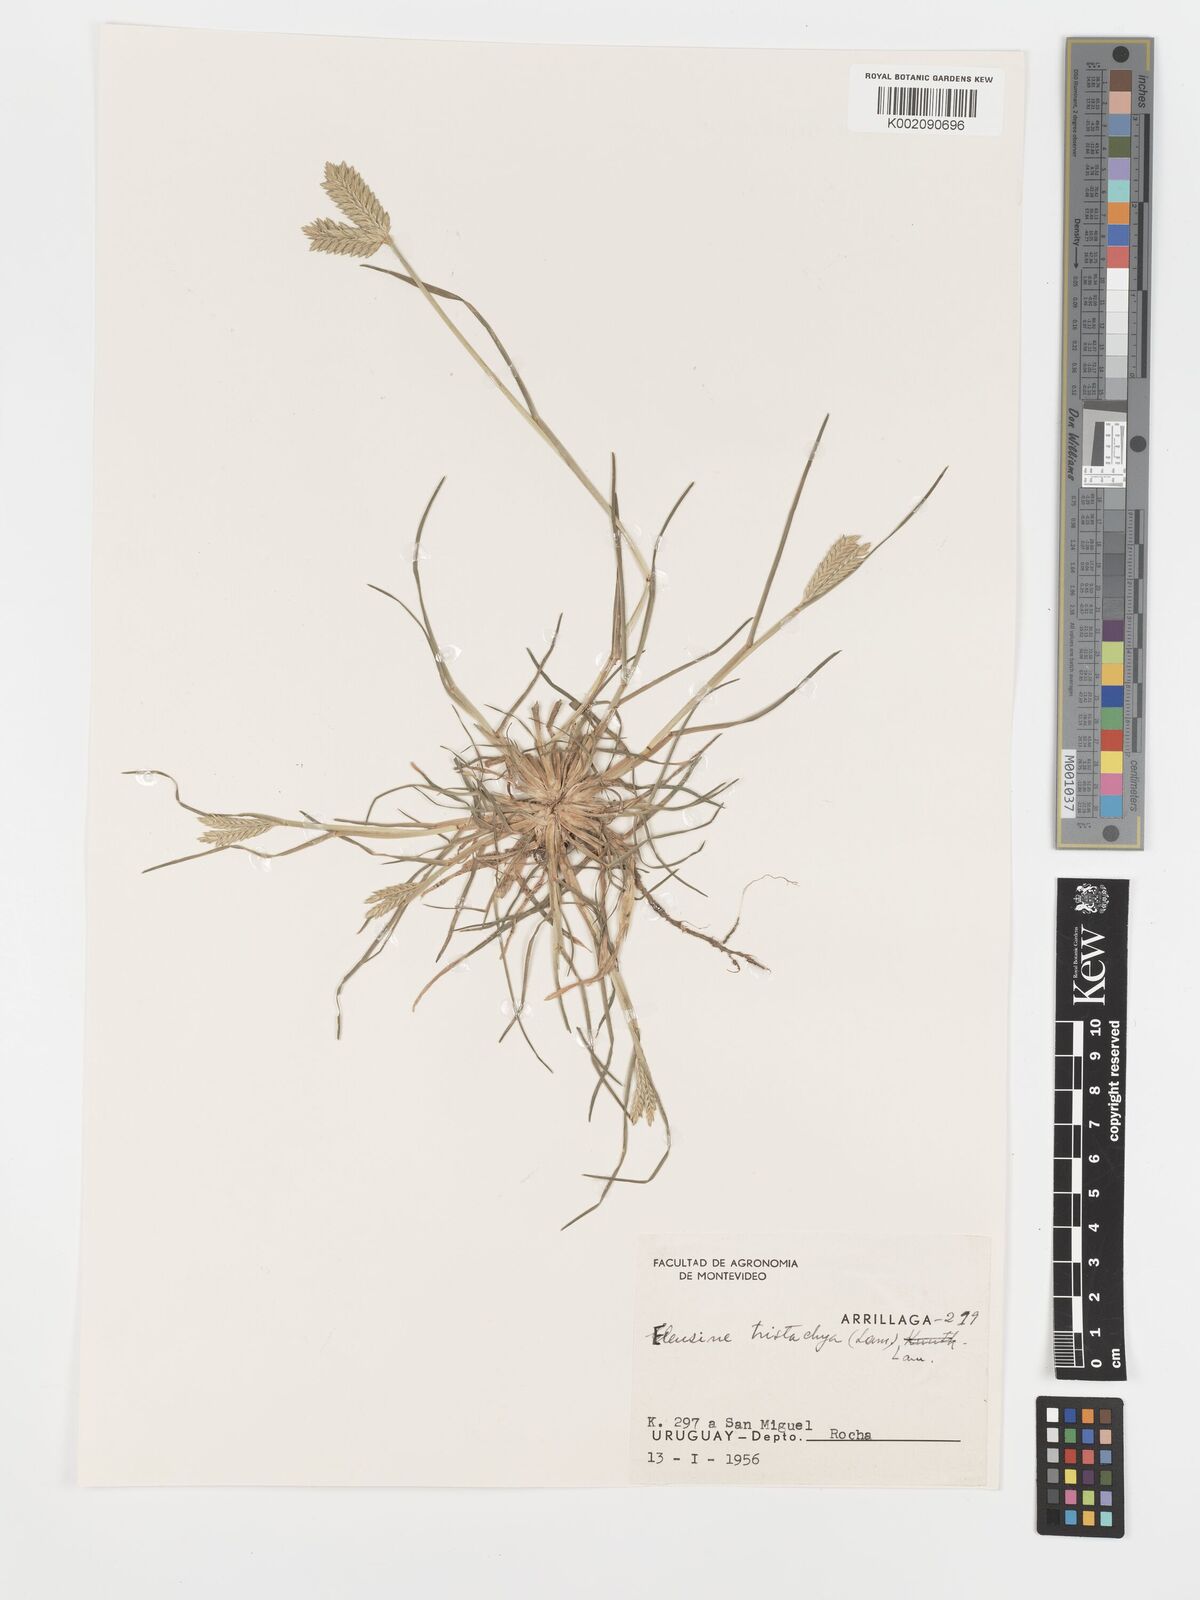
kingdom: Plantae
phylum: Tracheophyta
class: Liliopsida
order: Poales
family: Poaceae
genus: Eleusine
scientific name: Eleusine tristachya
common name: American yard-grass
